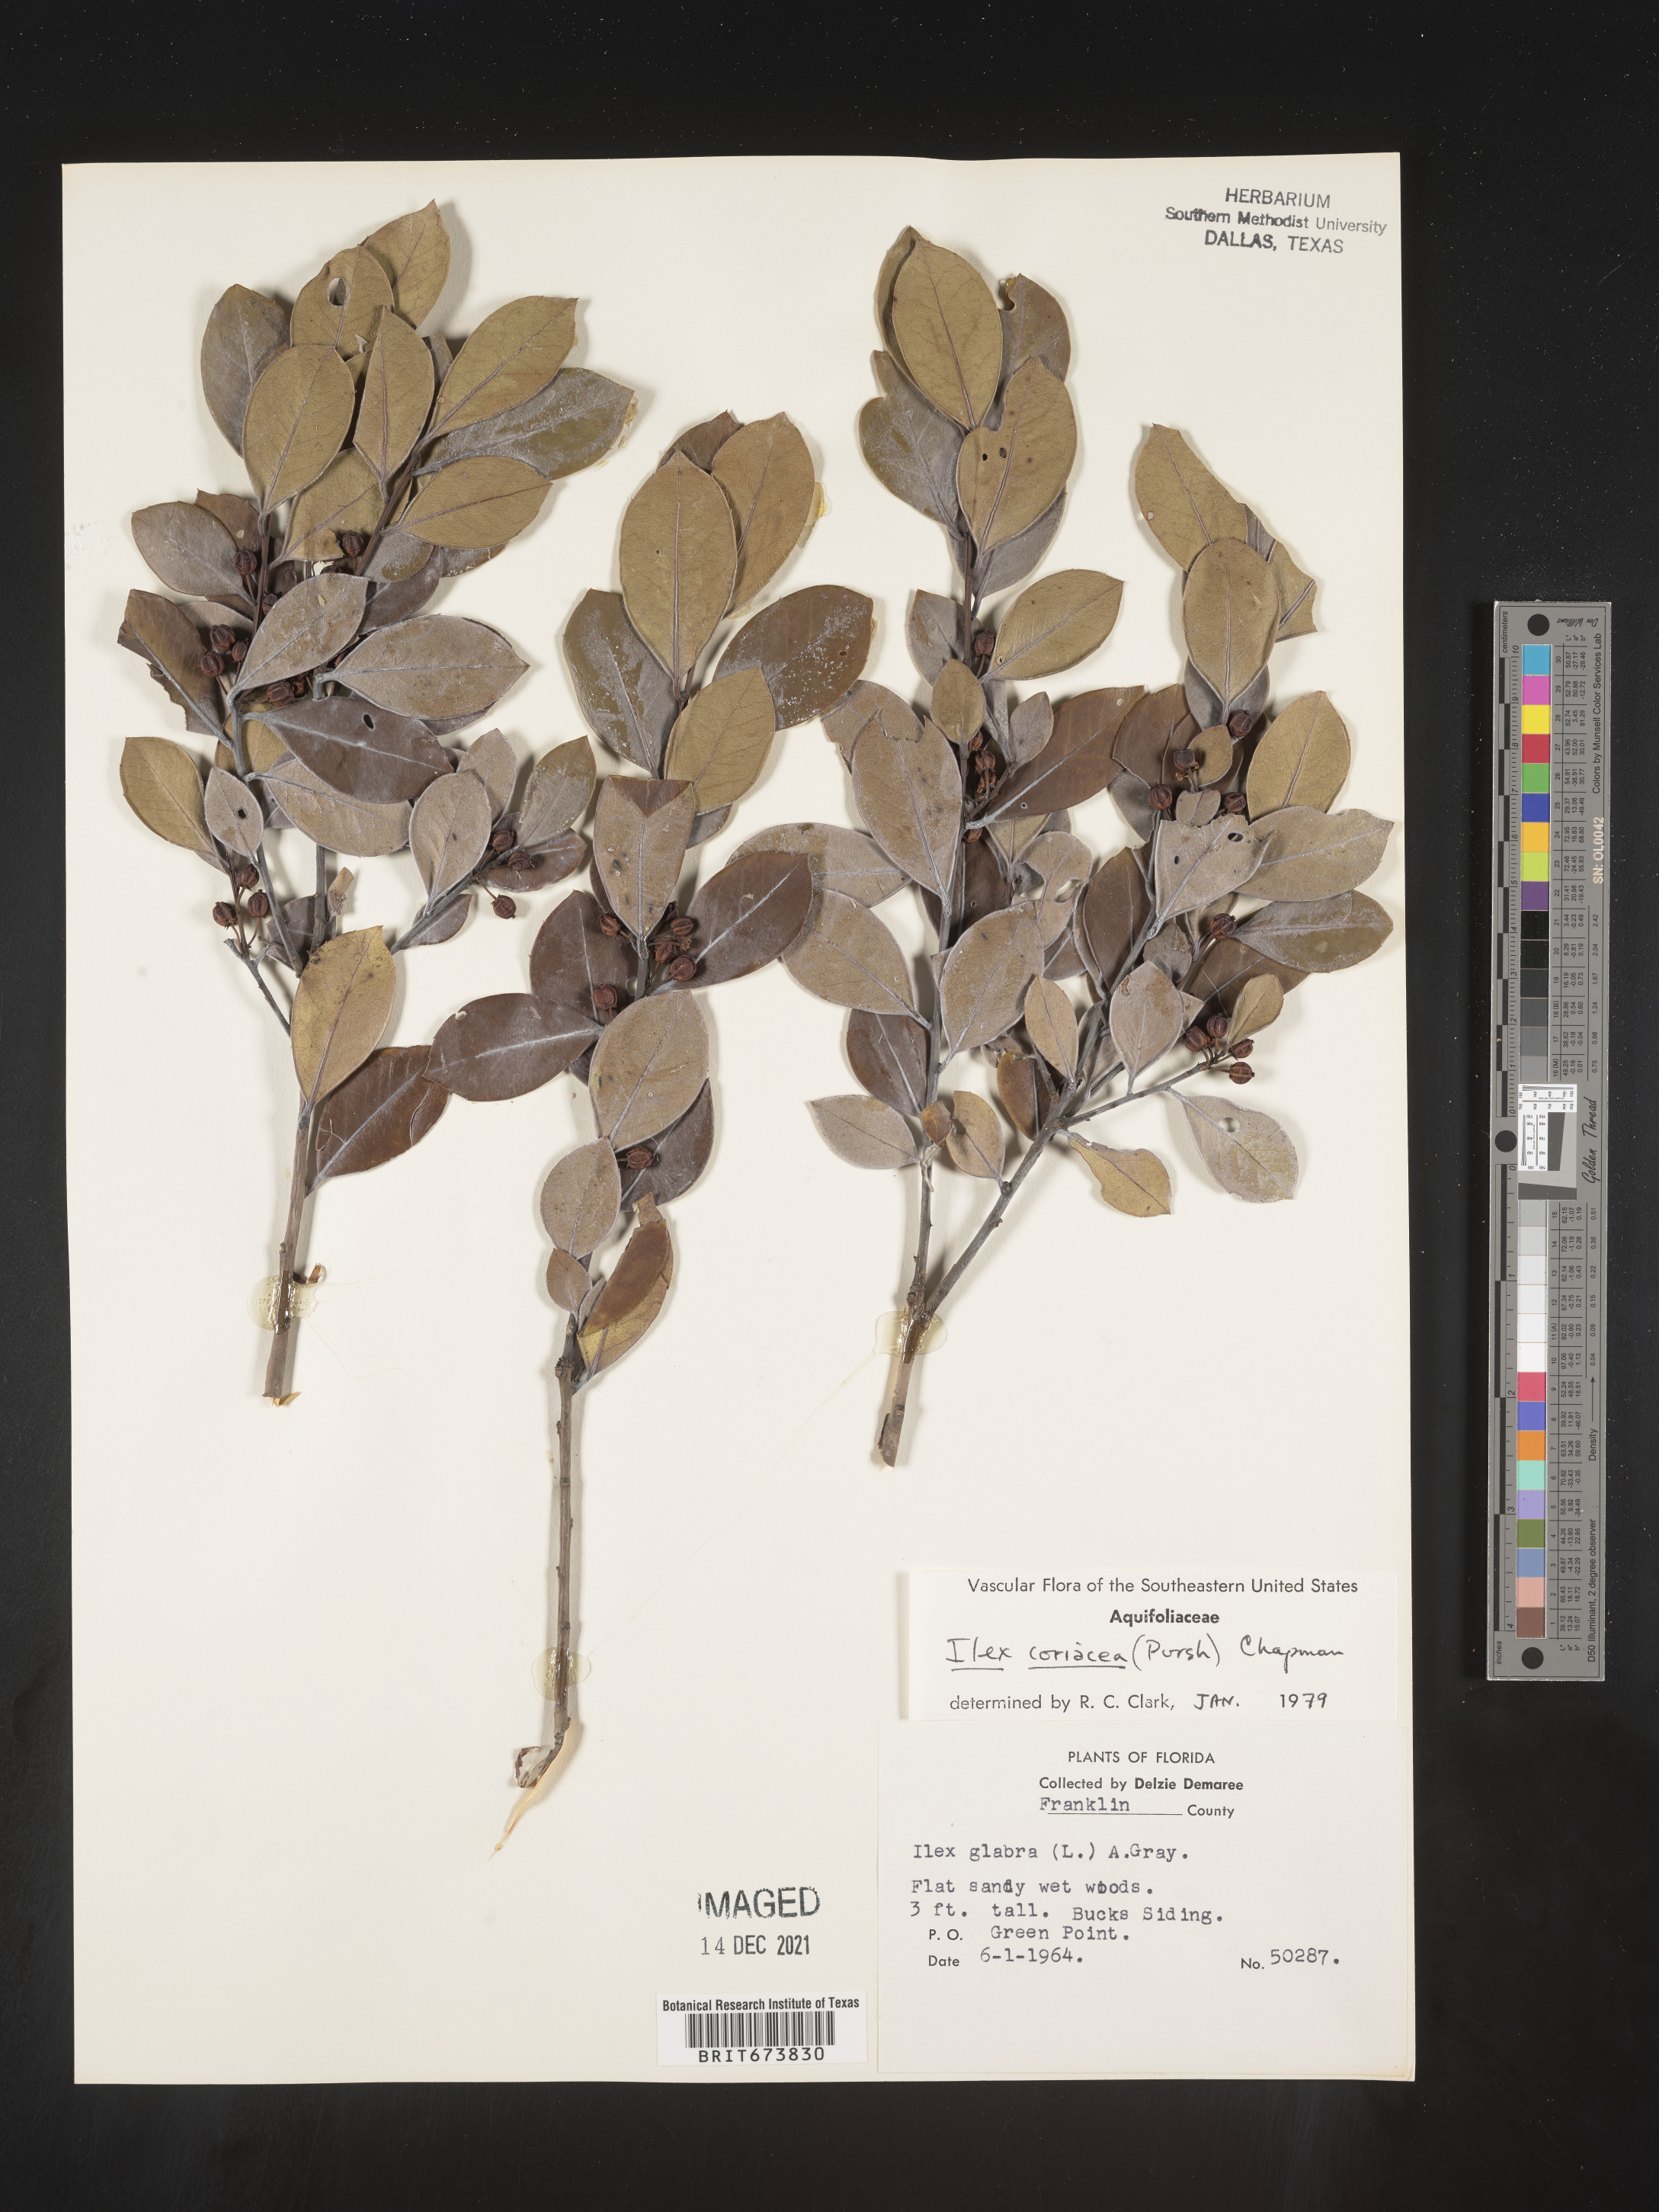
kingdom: Plantae
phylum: Tracheophyta
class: Magnoliopsida
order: Aquifoliales
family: Aquifoliaceae
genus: Ilex
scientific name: Ilex coriacea
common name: Sweet gallberry
